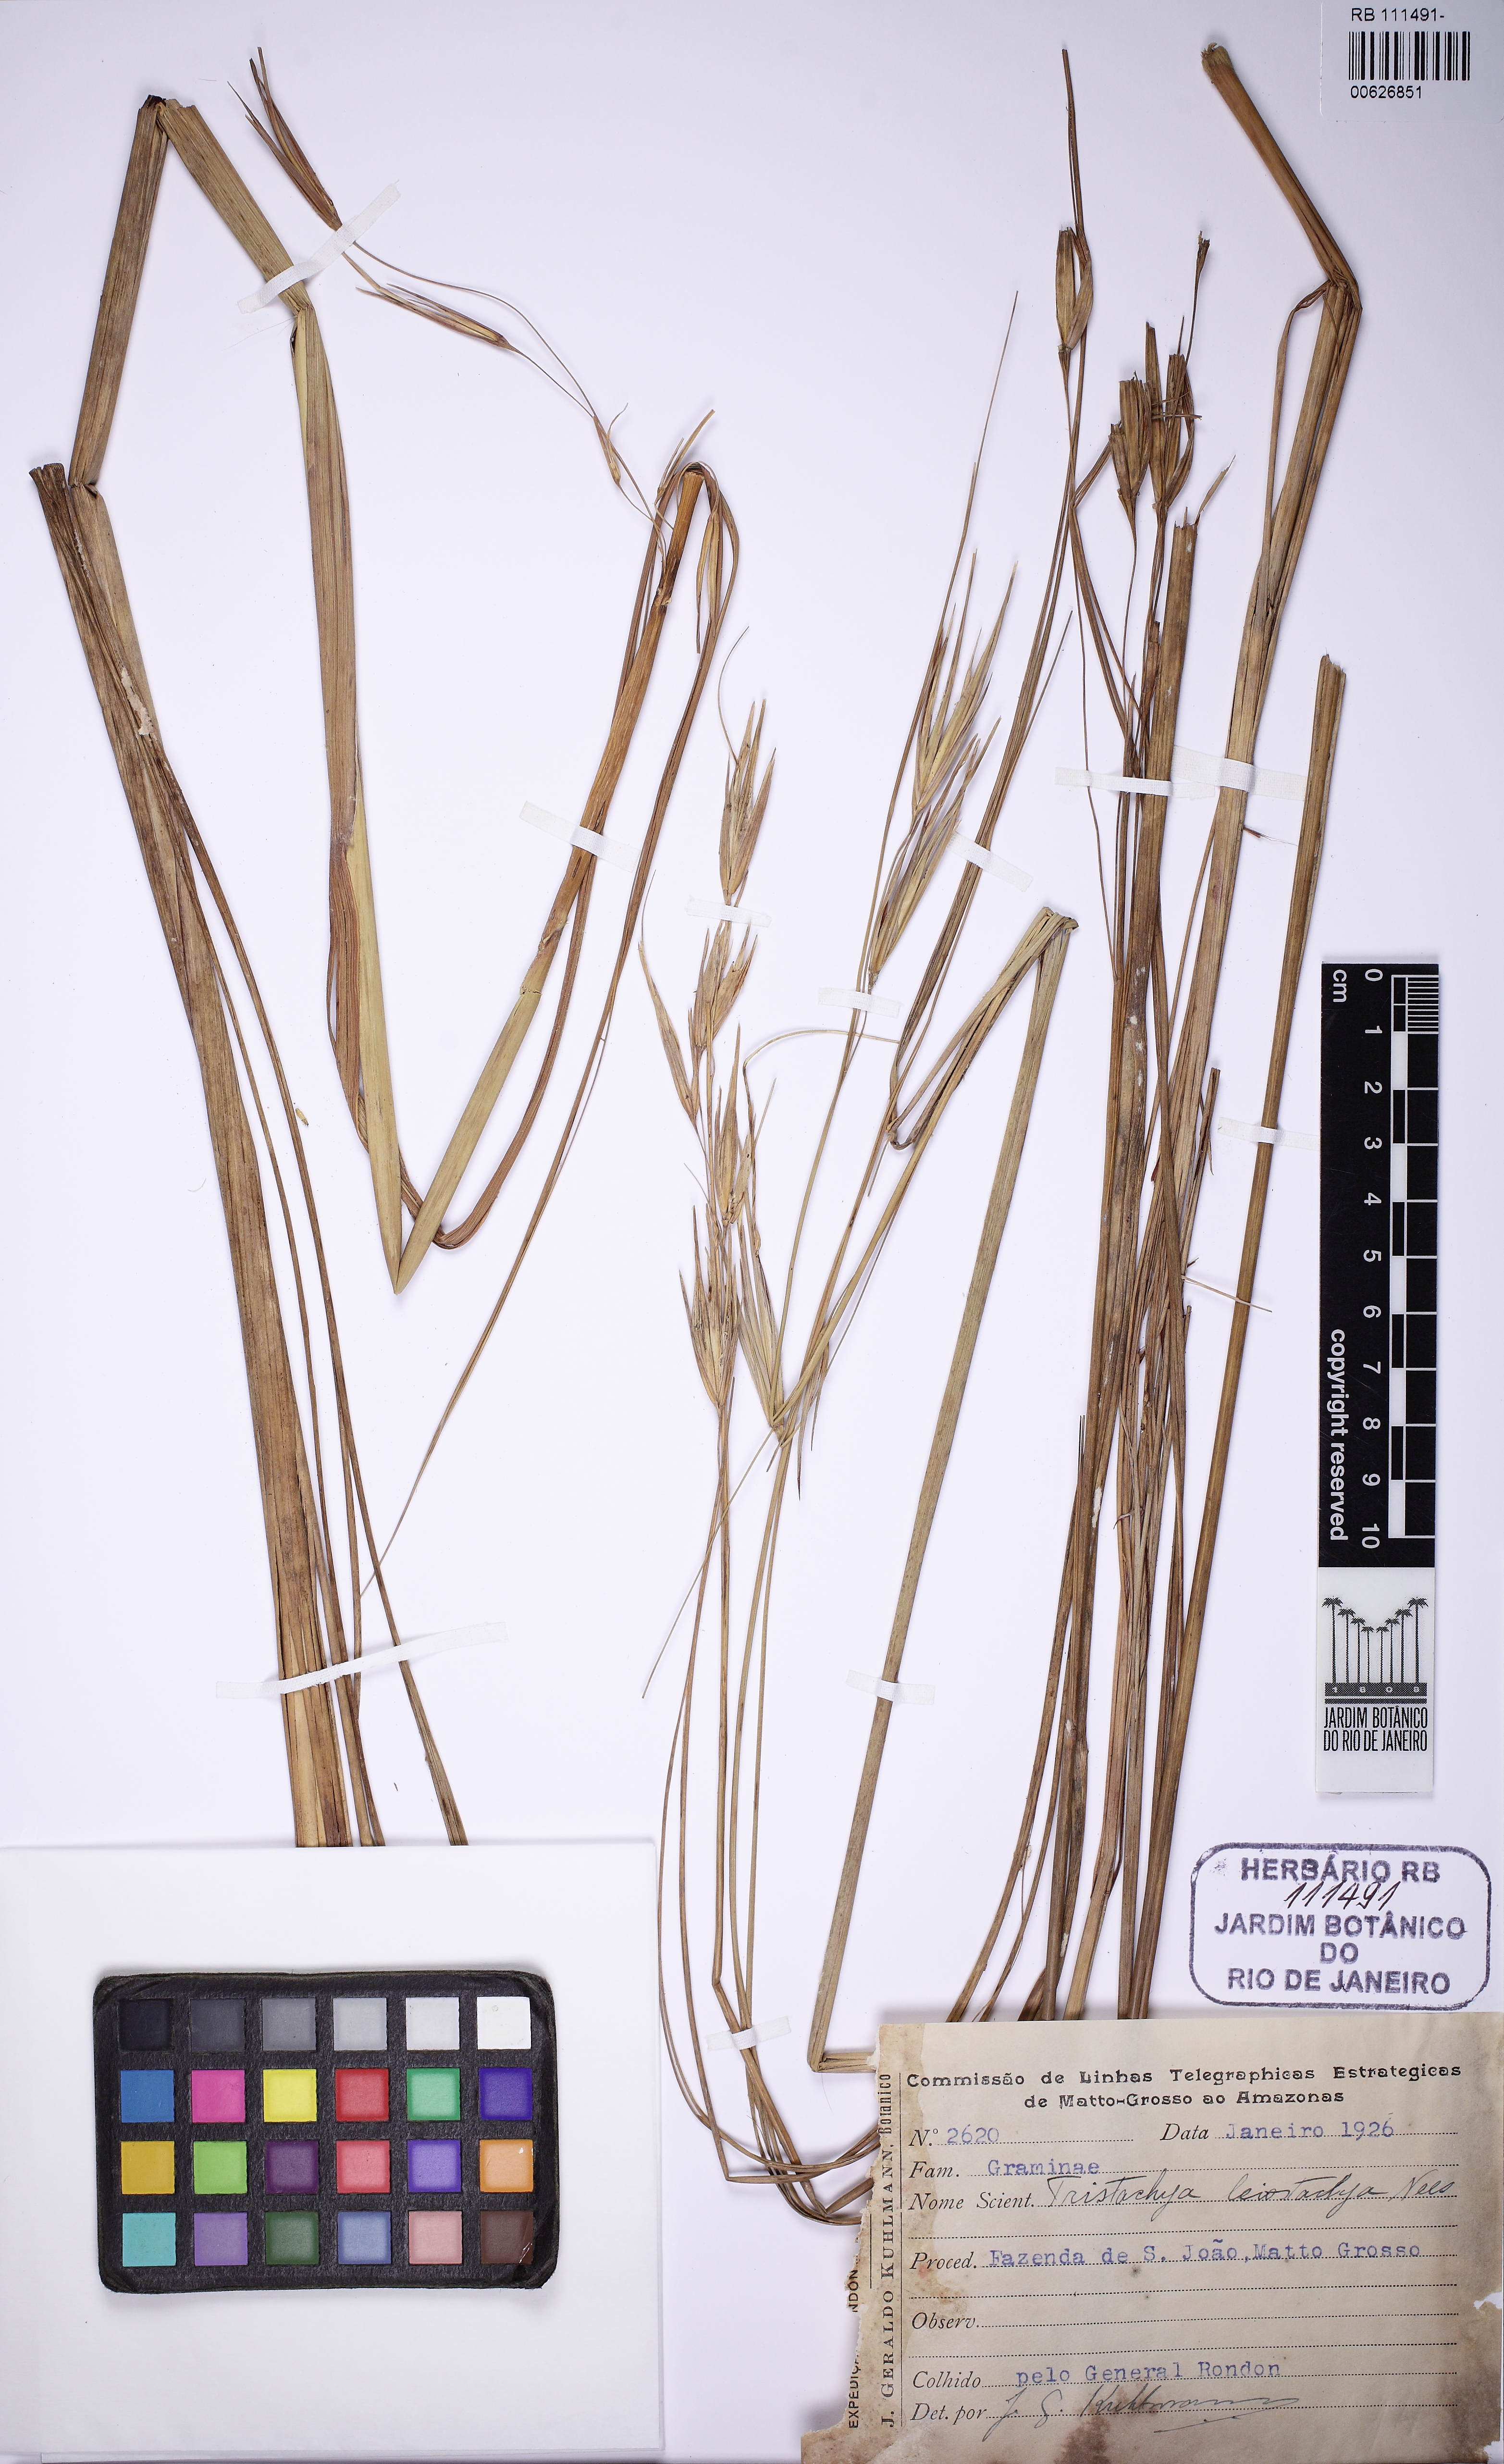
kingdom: Plantae
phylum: Tracheophyta
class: Liliopsida
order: Poales
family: Poaceae
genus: Tristachya
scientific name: Tristachya leiostachya
